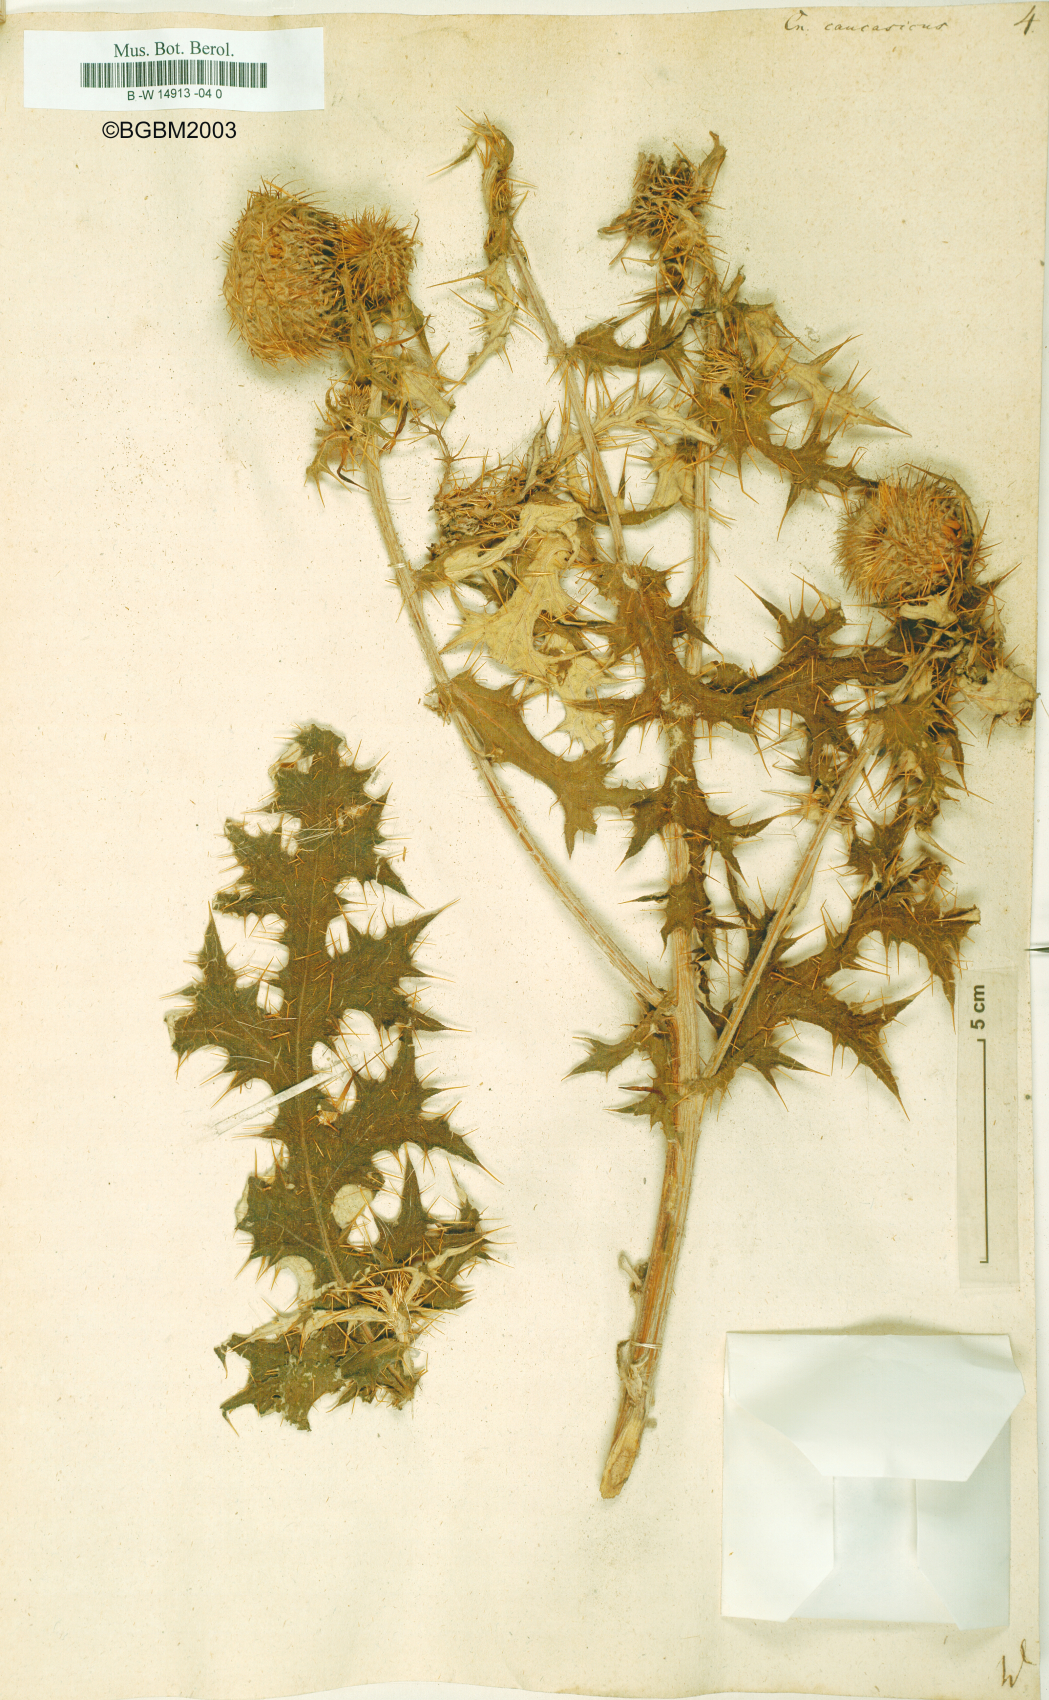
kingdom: Plantae
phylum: Tracheophyta
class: Magnoliopsida
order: Asterales
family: Asteraceae
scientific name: Asteraceae
